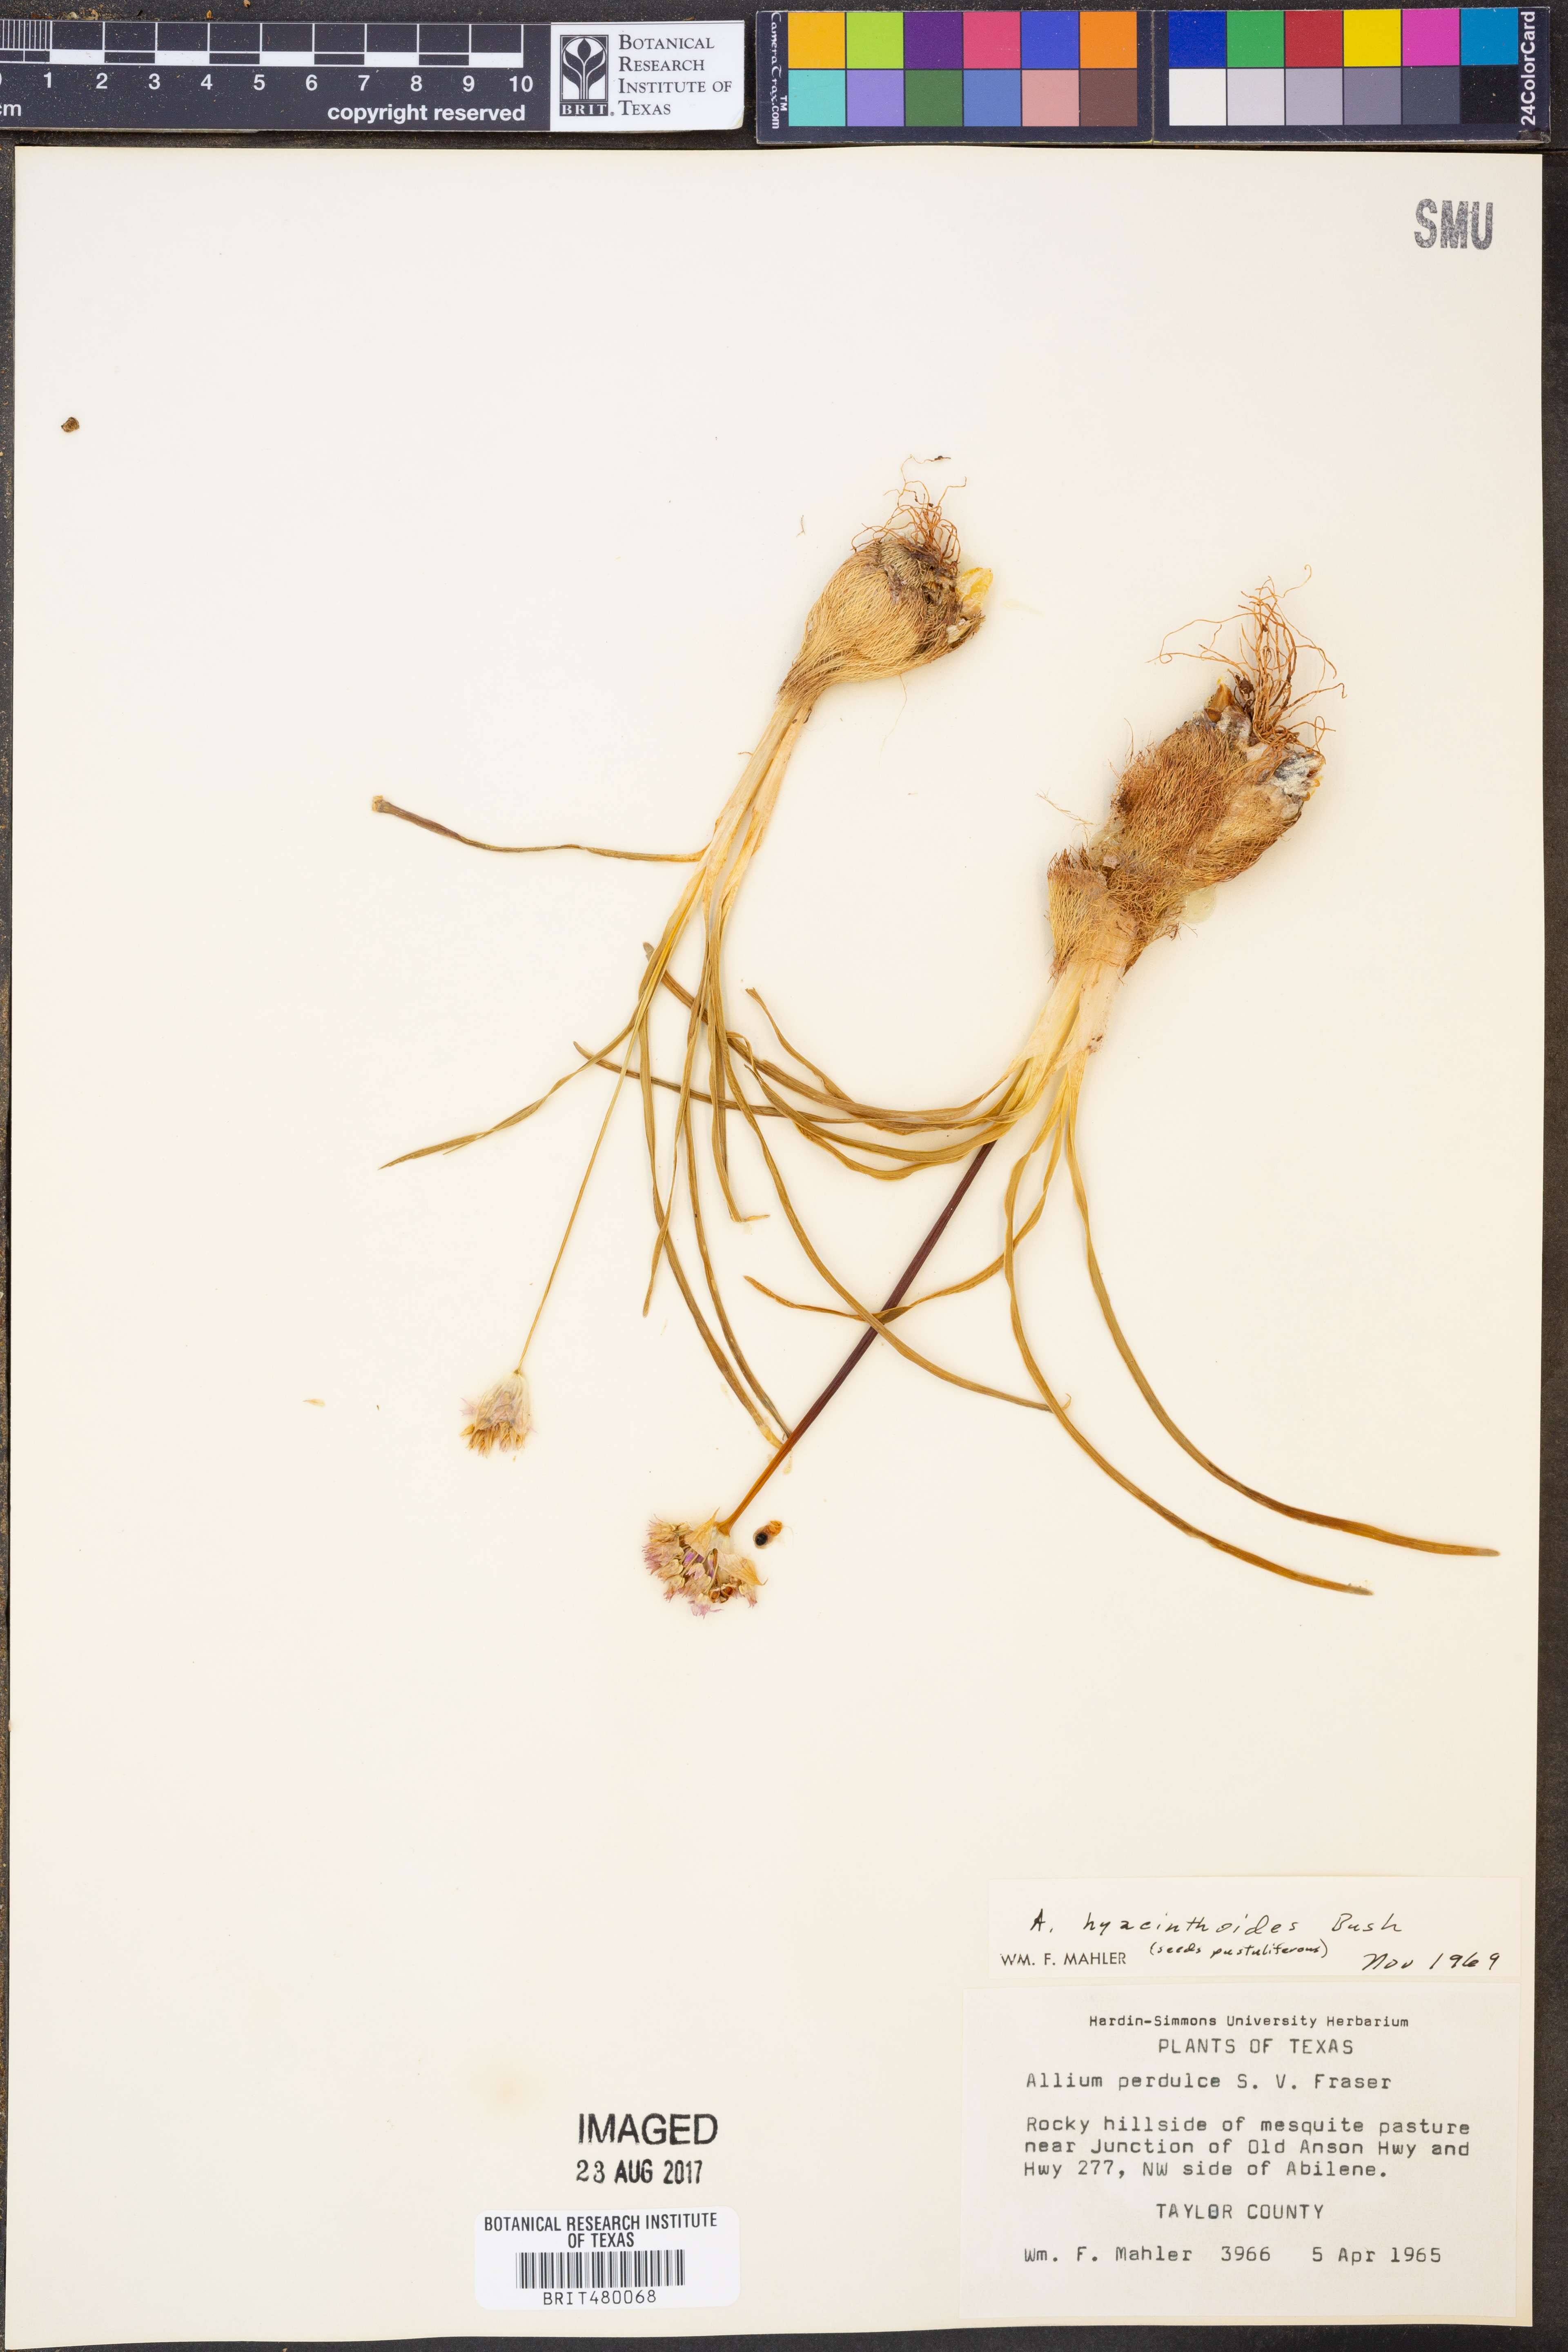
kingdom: Plantae
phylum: Tracheophyta
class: Liliopsida
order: Asparagales
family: Amaryllidaceae
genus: Allium
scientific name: Allium canadense
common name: Meadow garlic
